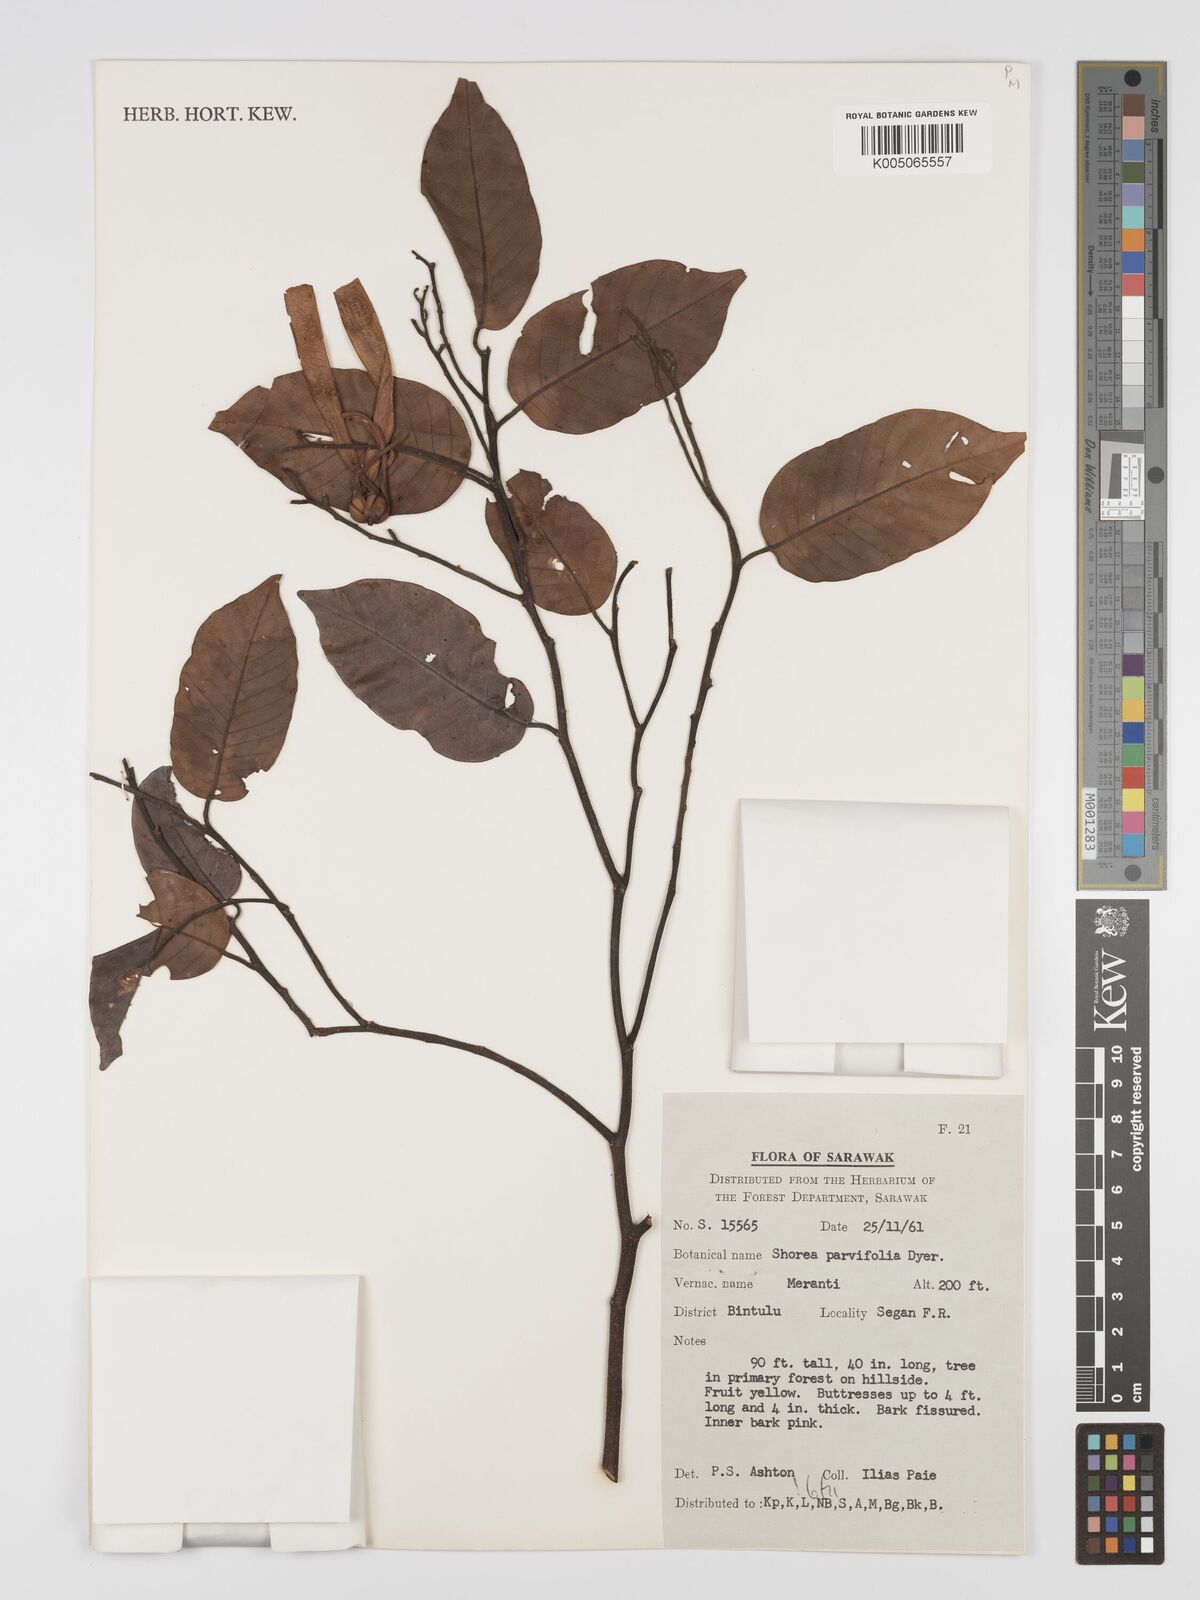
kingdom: Plantae
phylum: Tracheophyta
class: Magnoliopsida
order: Malvales
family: Dipterocarpaceae
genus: Shorea
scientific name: Shorea parvifolia
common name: Light red meranti
